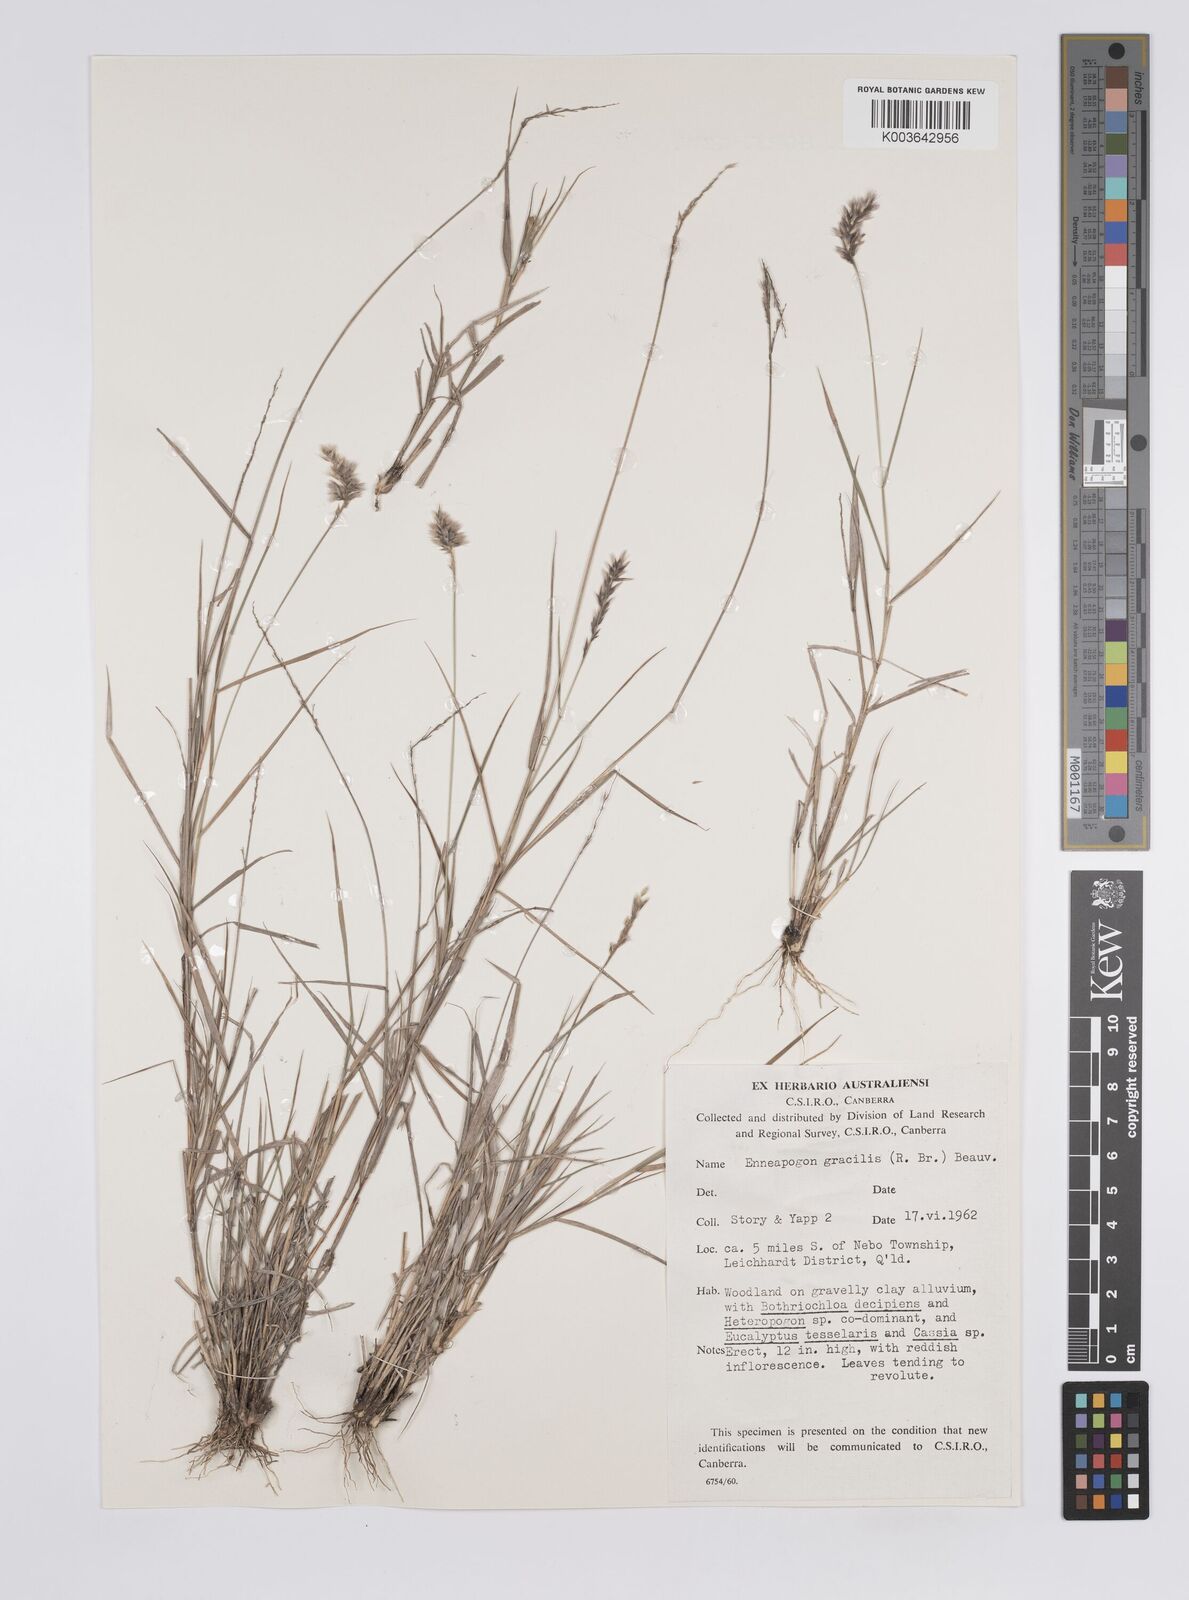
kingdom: Plantae
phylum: Tracheophyta
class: Liliopsida
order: Poales
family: Poaceae
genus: Enneapogon
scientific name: Enneapogon gracilis
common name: Slender bottle-washers
